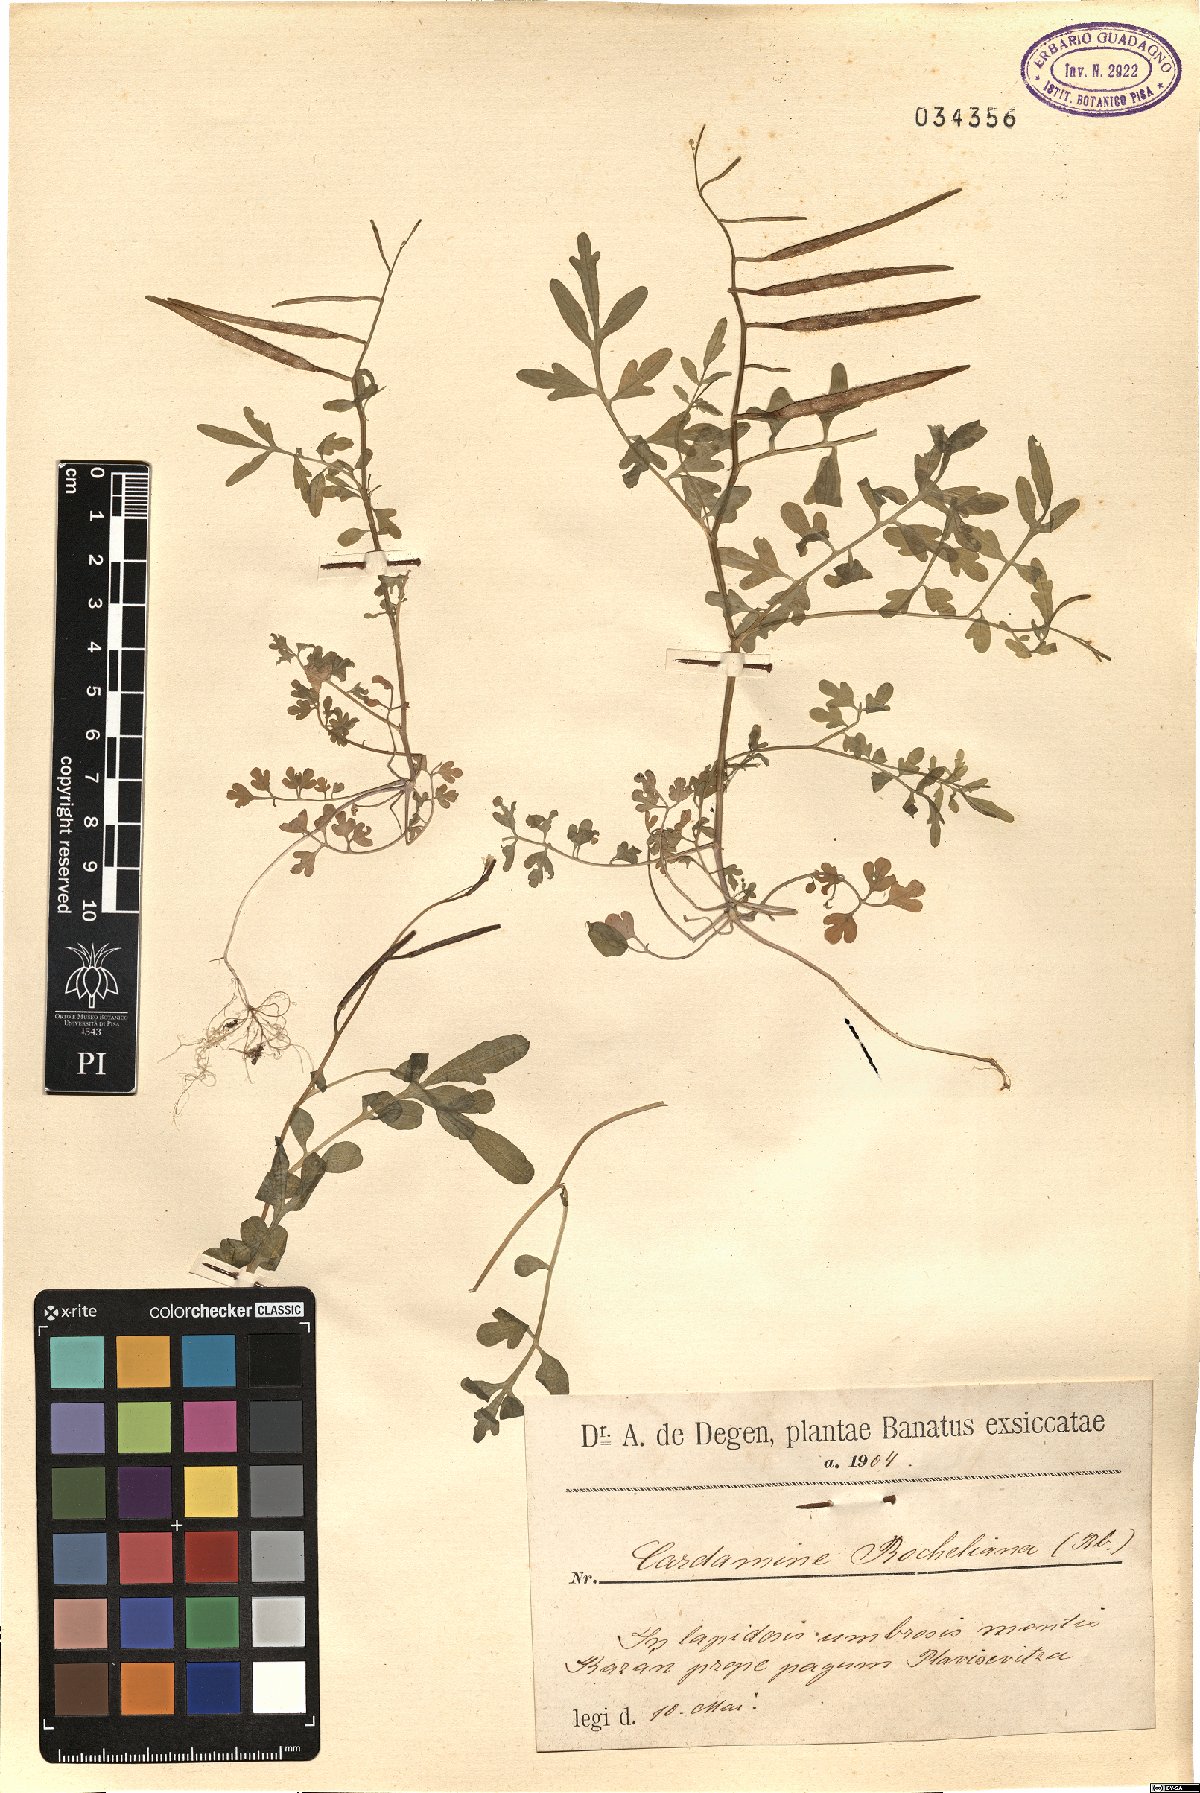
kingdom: Plantae
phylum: Tracheophyta
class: Magnoliopsida
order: Brassicales
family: Brassicaceae
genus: Cardamine
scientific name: Cardamine graeca
